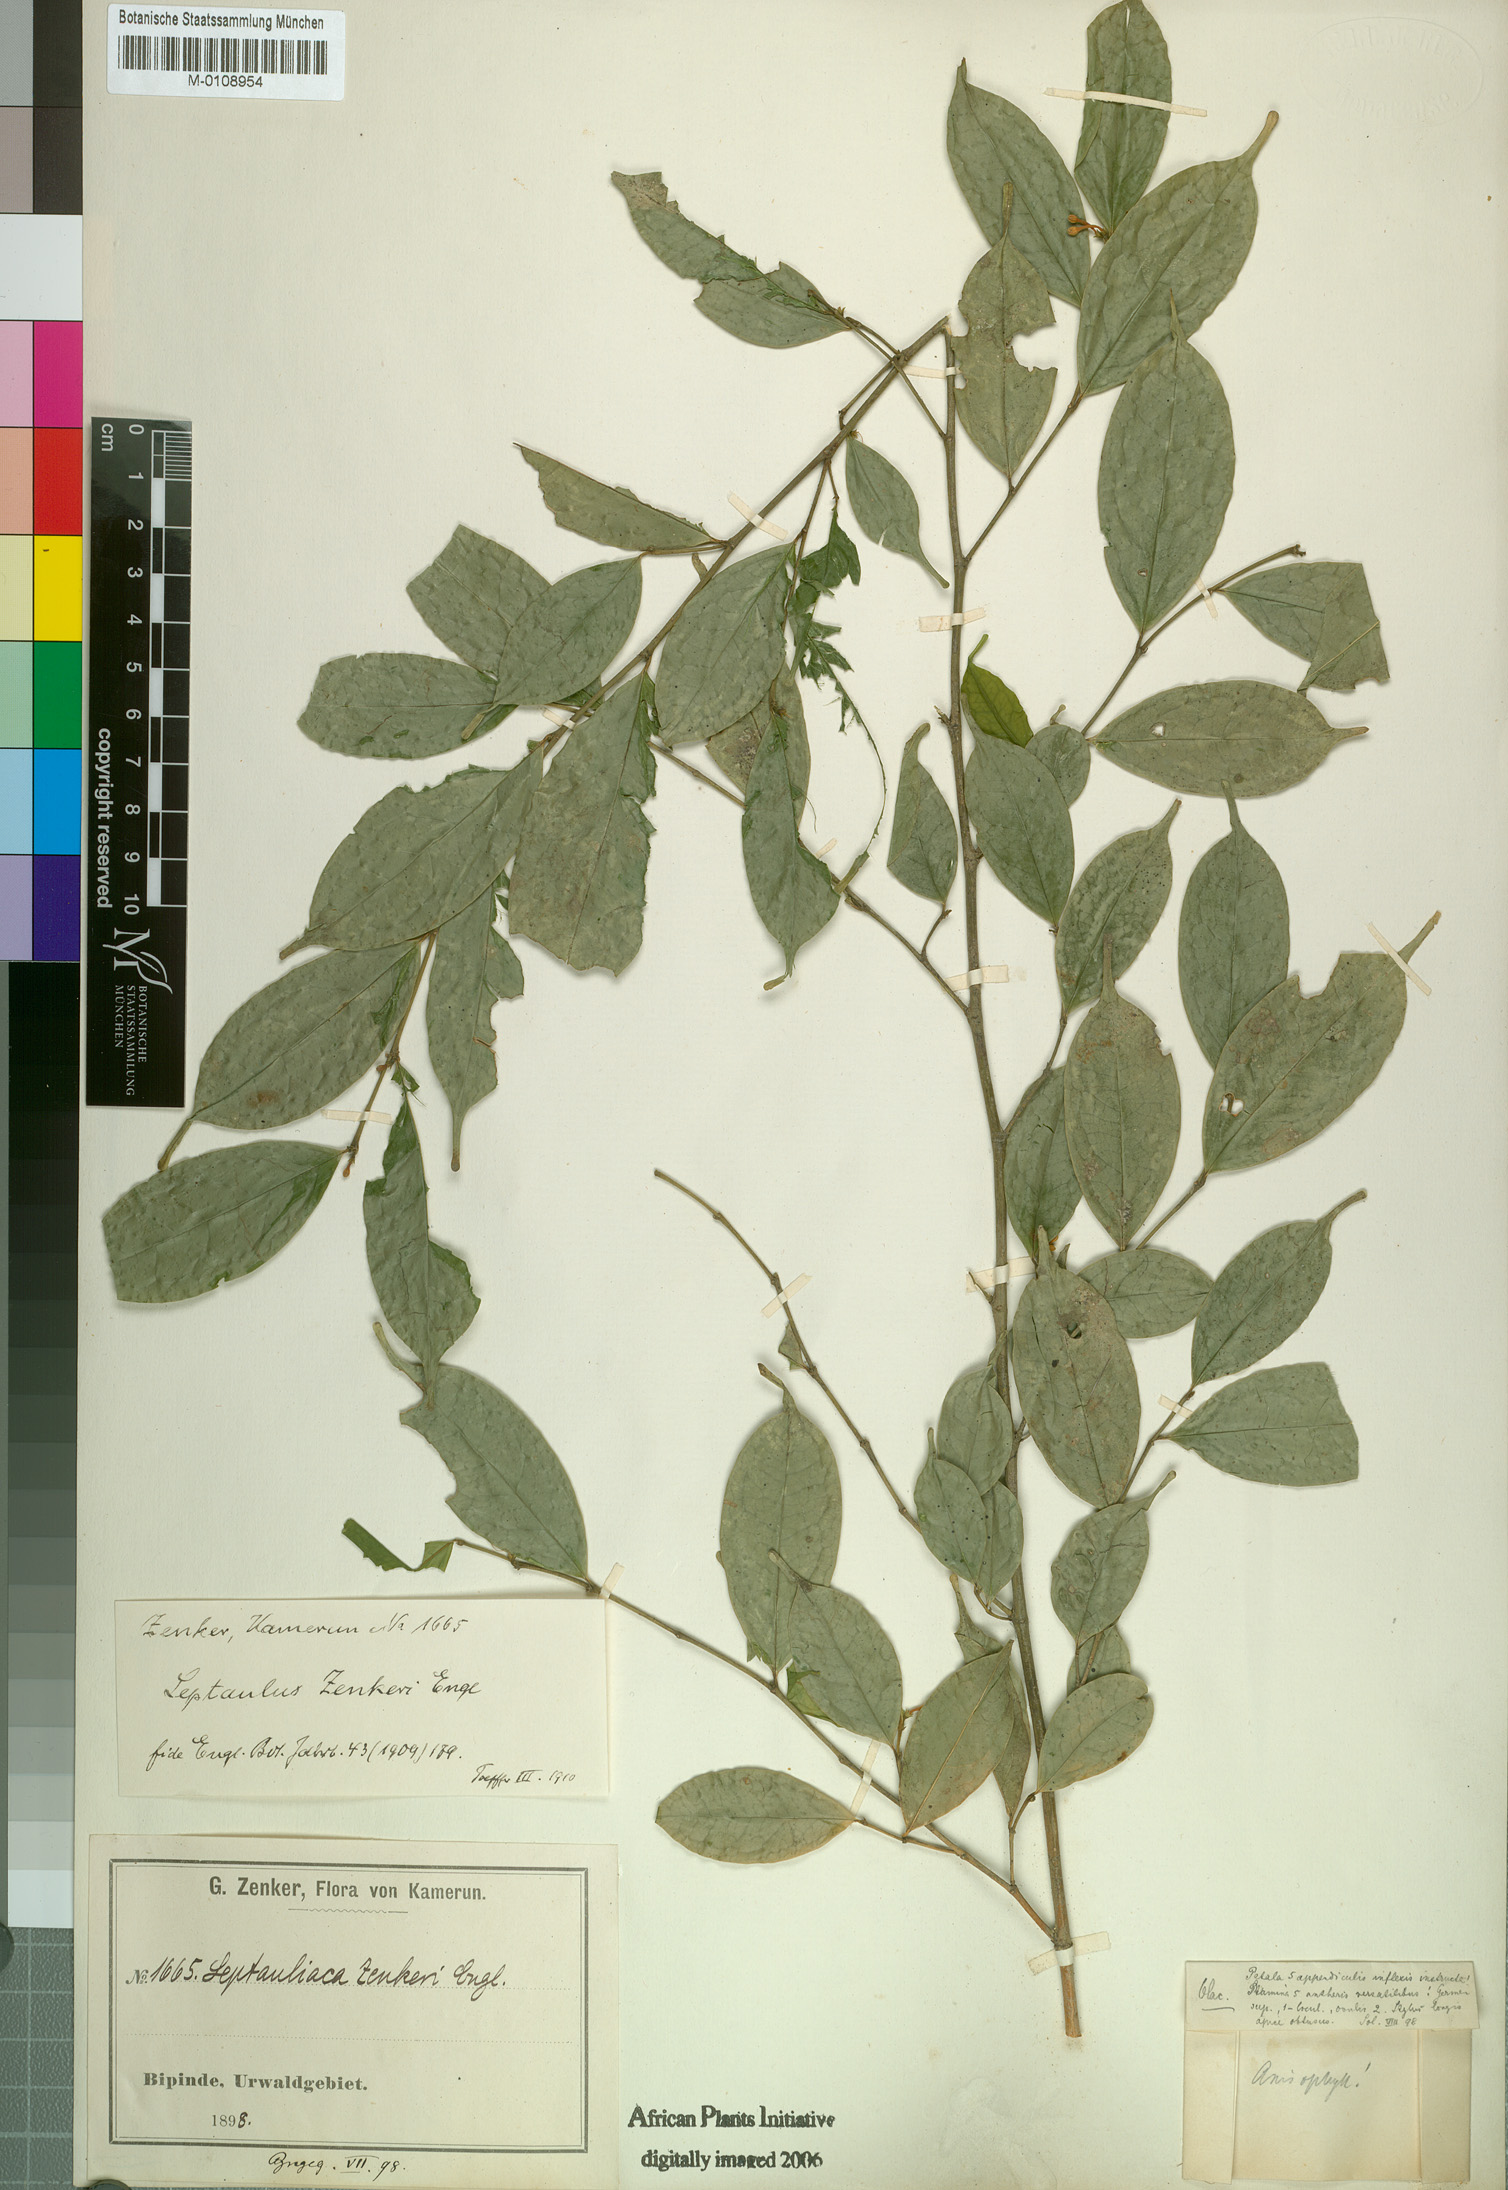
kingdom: Plantae
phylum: Tracheophyta
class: Magnoliopsida
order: Cardiopteridales
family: Cardiopteridaceae
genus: Leptaulus
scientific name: Leptaulus congolanus
